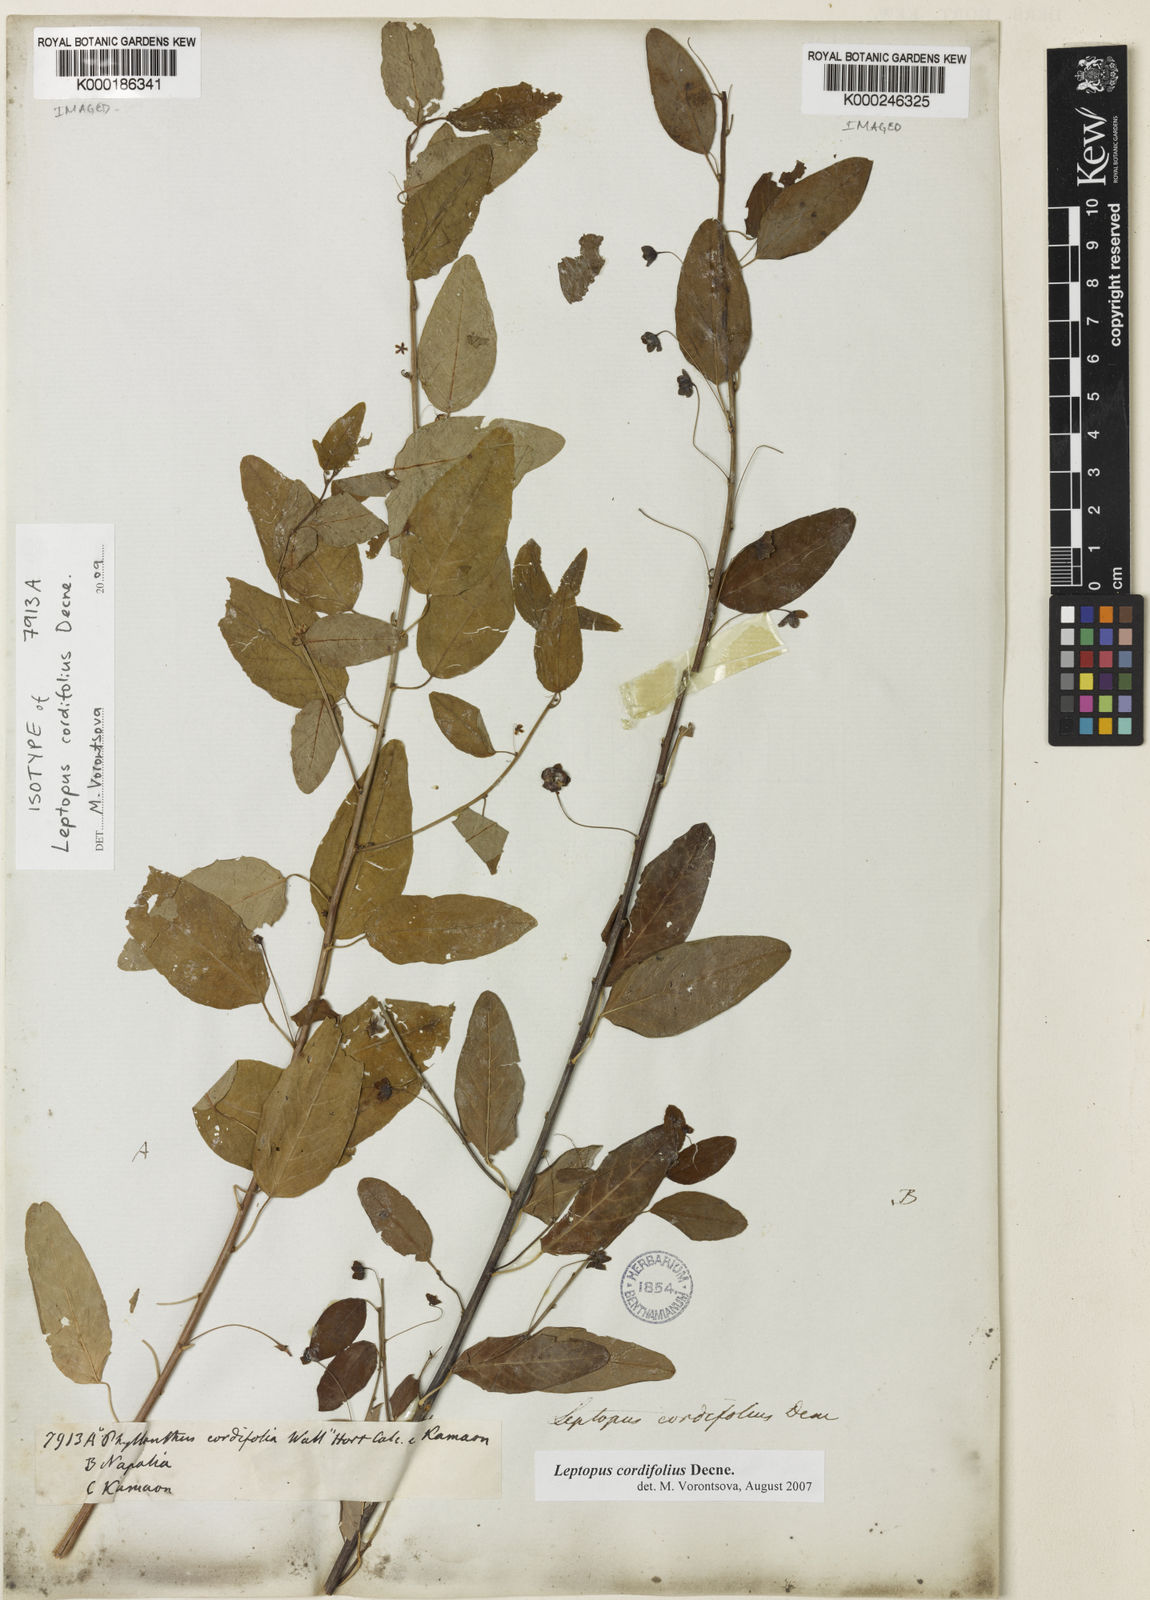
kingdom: Plantae
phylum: Tracheophyta
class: Magnoliopsida
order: Malpighiales
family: Phyllanthaceae
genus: Leptopus
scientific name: Leptopus cordifolius
